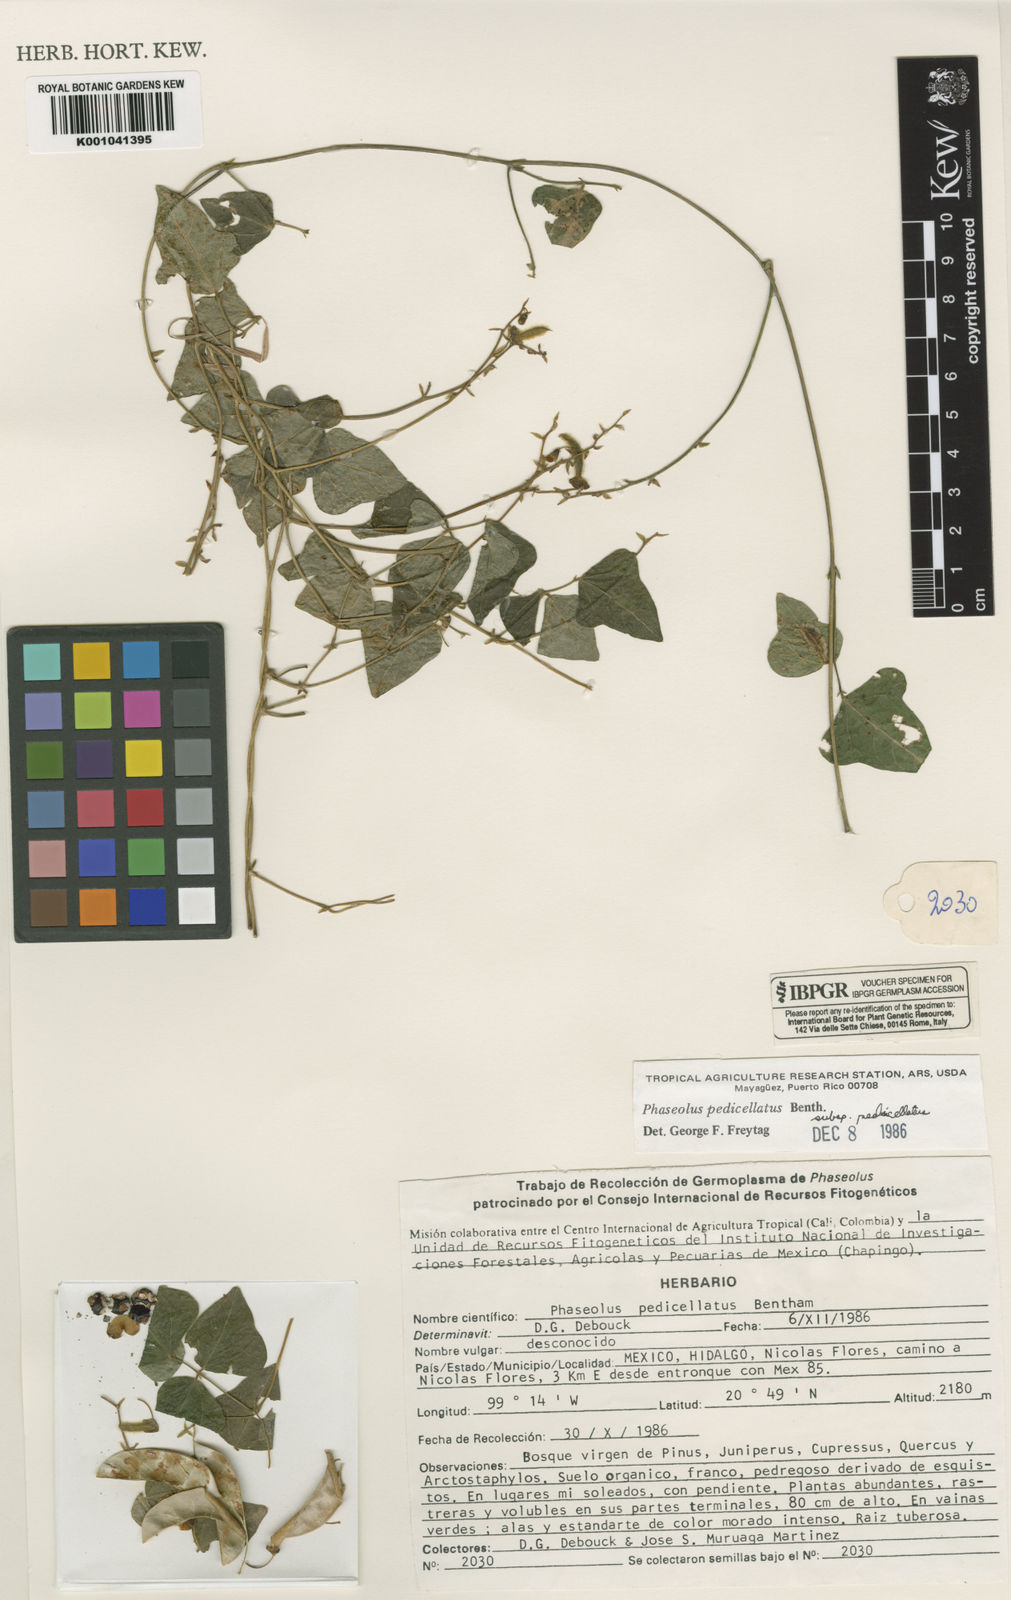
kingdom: Plantae
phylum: Tracheophyta
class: Magnoliopsida
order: Fabales
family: Fabaceae
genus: Phaseolus
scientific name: Phaseolus pedicellatus
